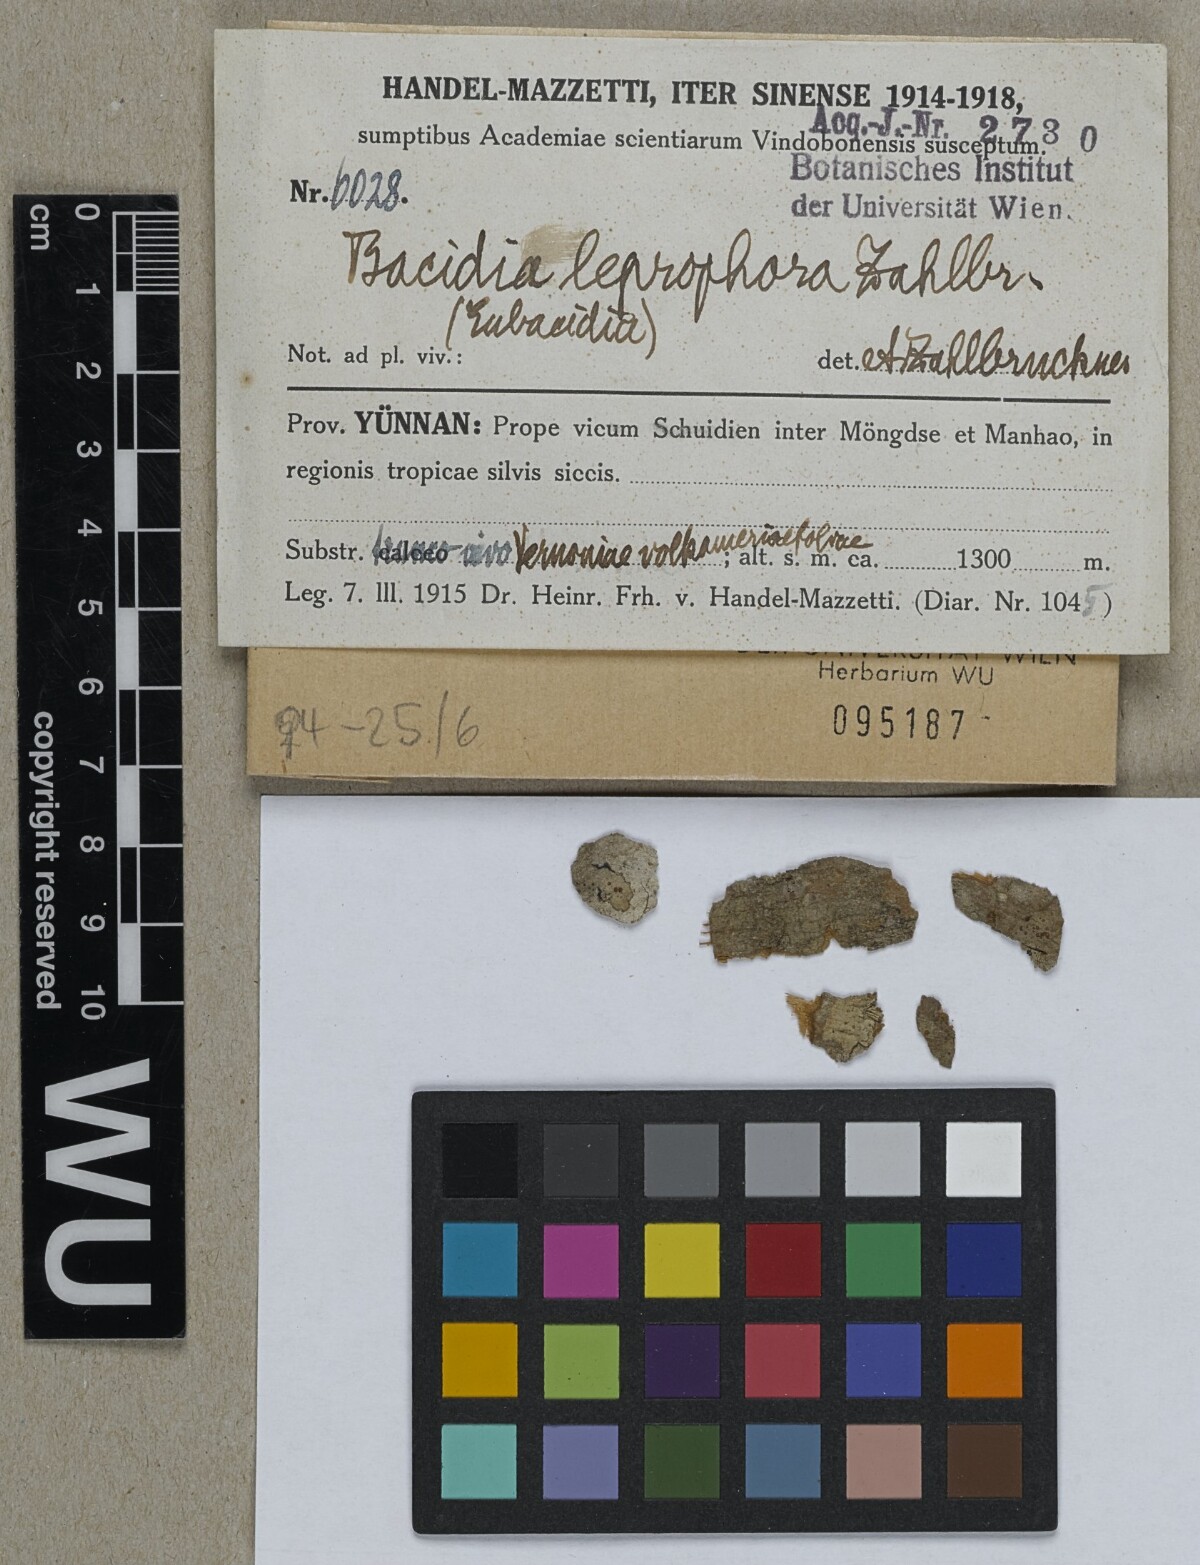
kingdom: Fungi
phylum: Ascomycota
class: Lecanoromycetes
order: Lecanorales
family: Ramalinaceae
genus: Bacidia
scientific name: Bacidia
